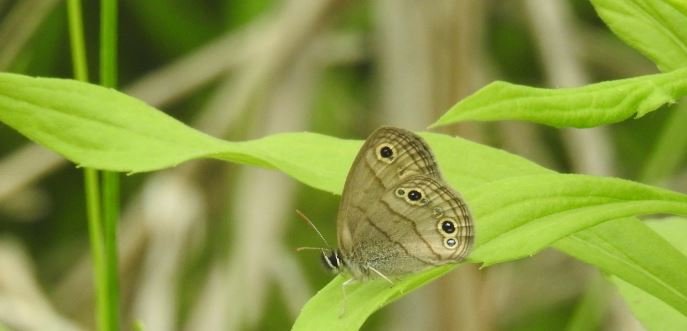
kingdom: Animalia
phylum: Arthropoda
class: Insecta
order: Lepidoptera
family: Nymphalidae
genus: Euptychia
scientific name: Euptychia cymela
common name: Little Wood Satyr
